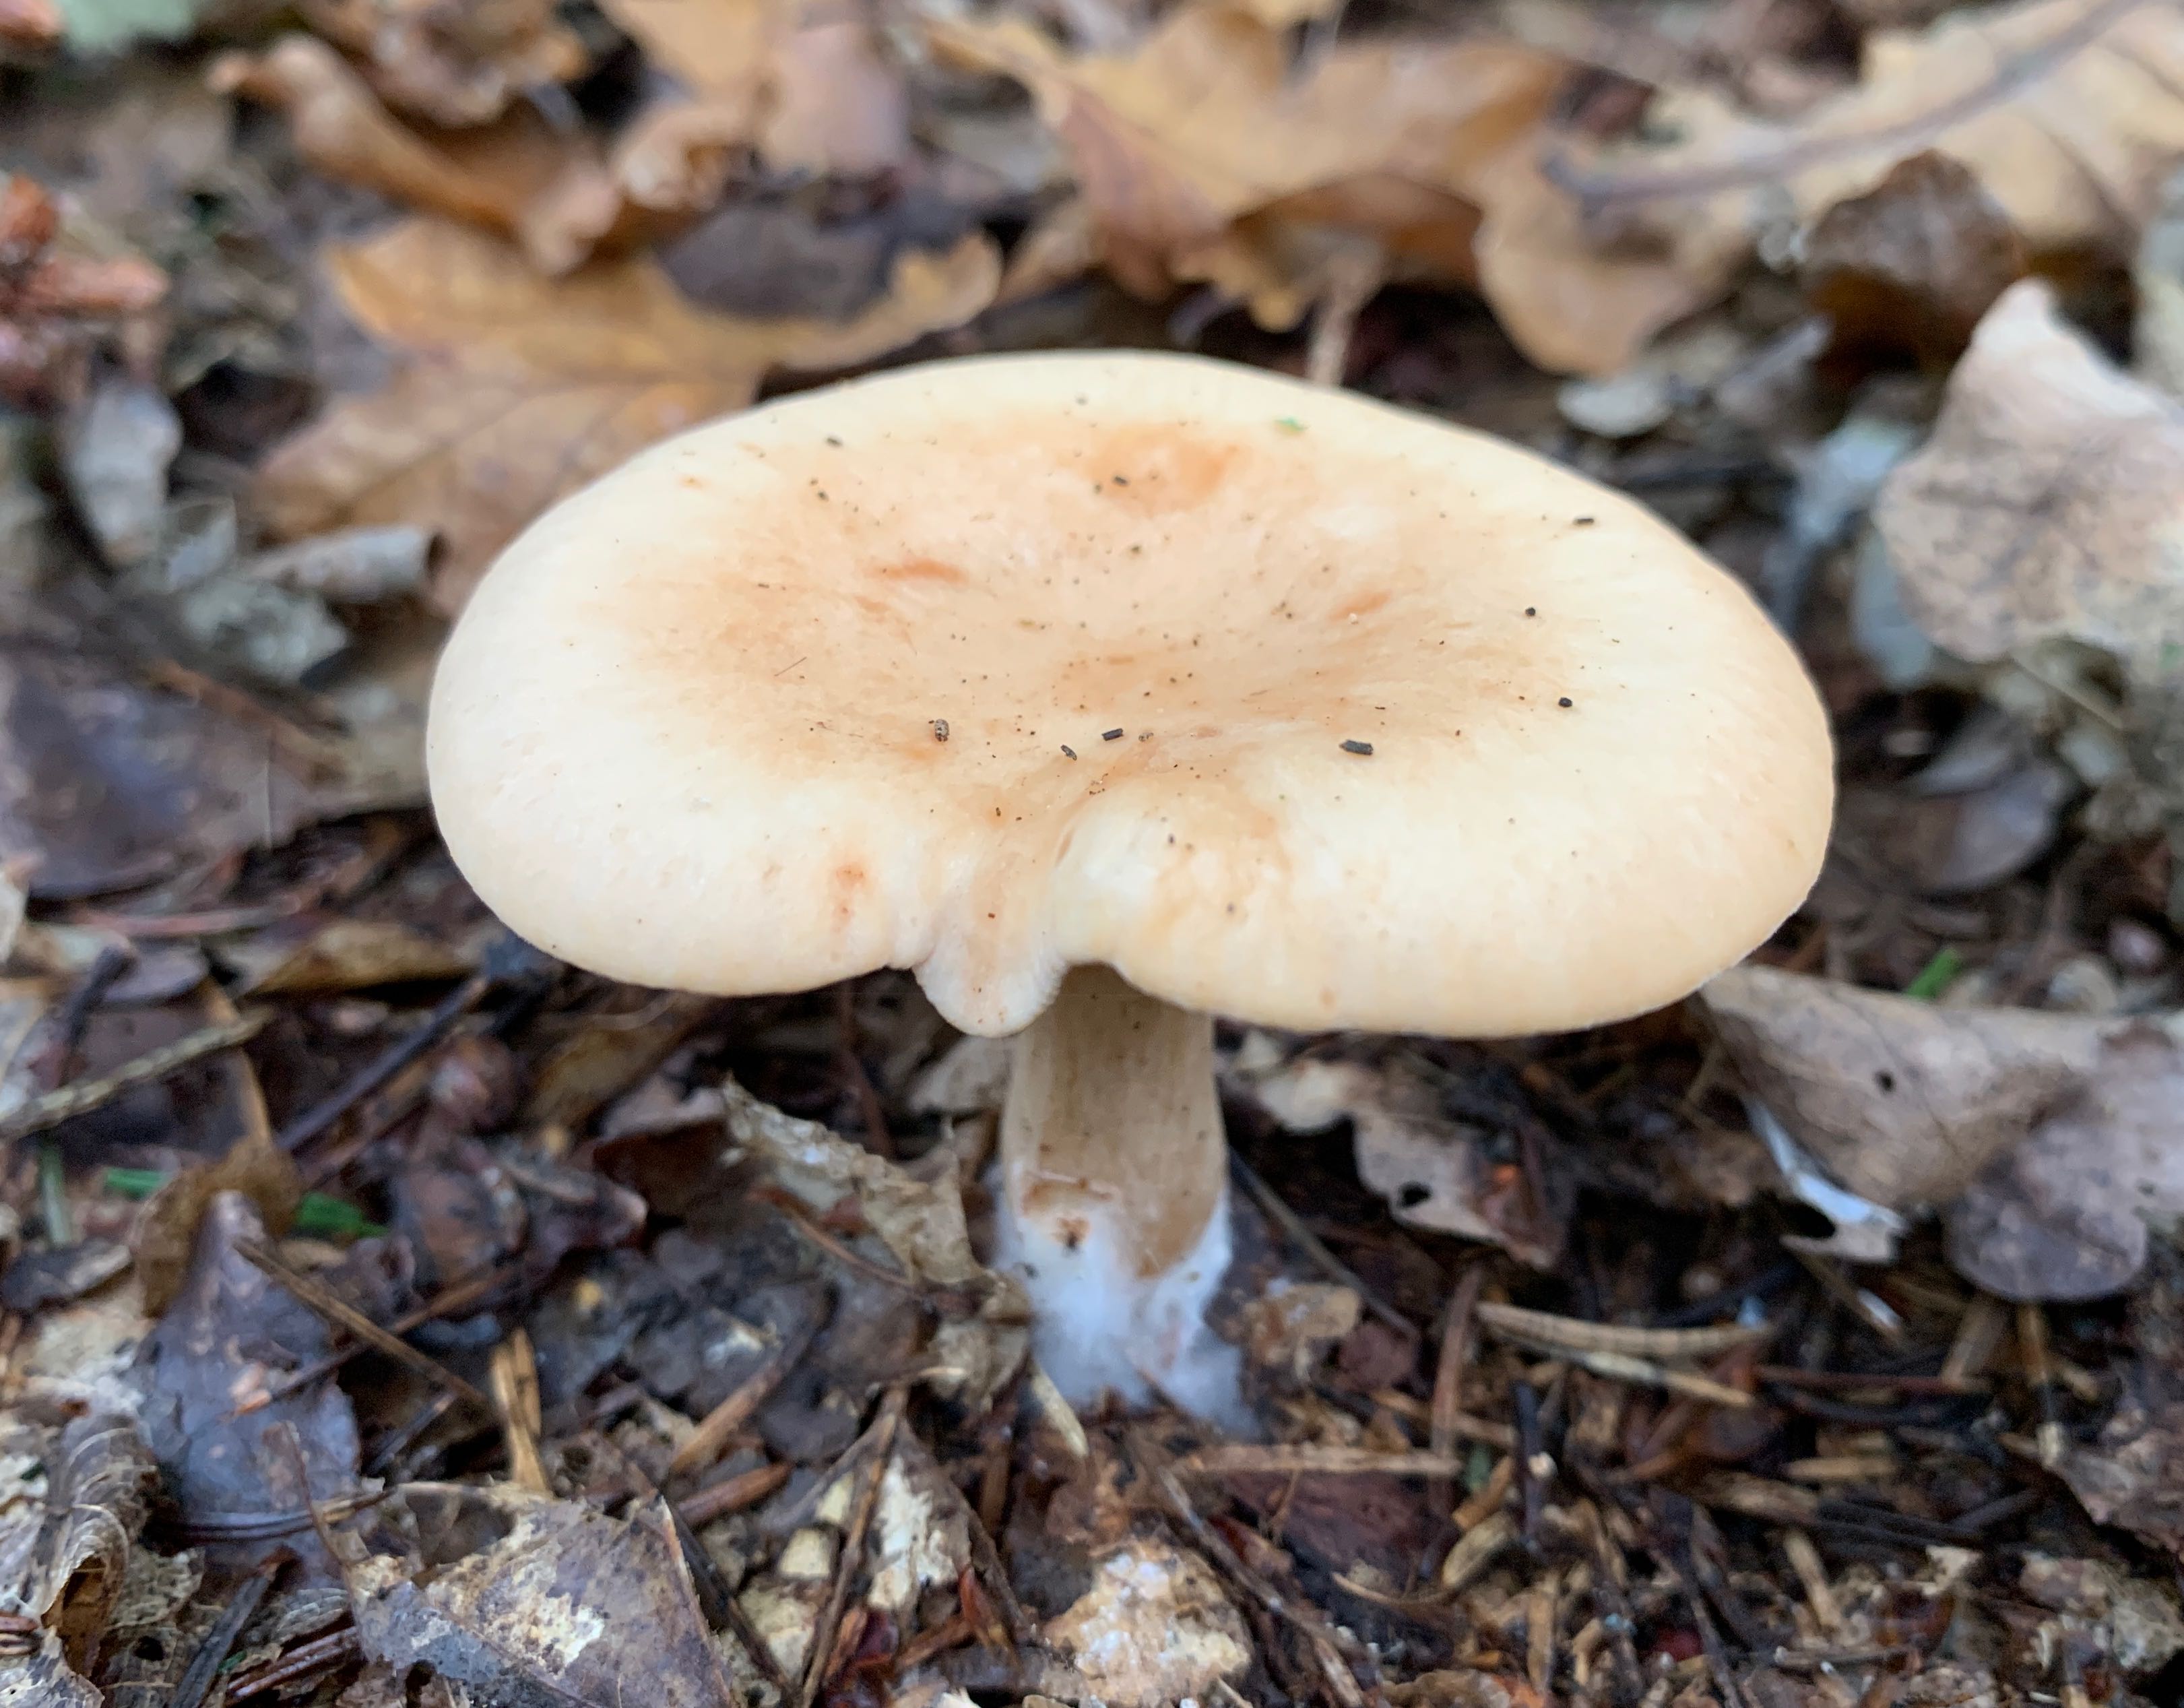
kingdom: Fungi
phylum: Basidiomycota
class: Agaricomycetes
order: Agaricales
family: Tricholomataceae
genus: Paralepista
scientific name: Paralepista
